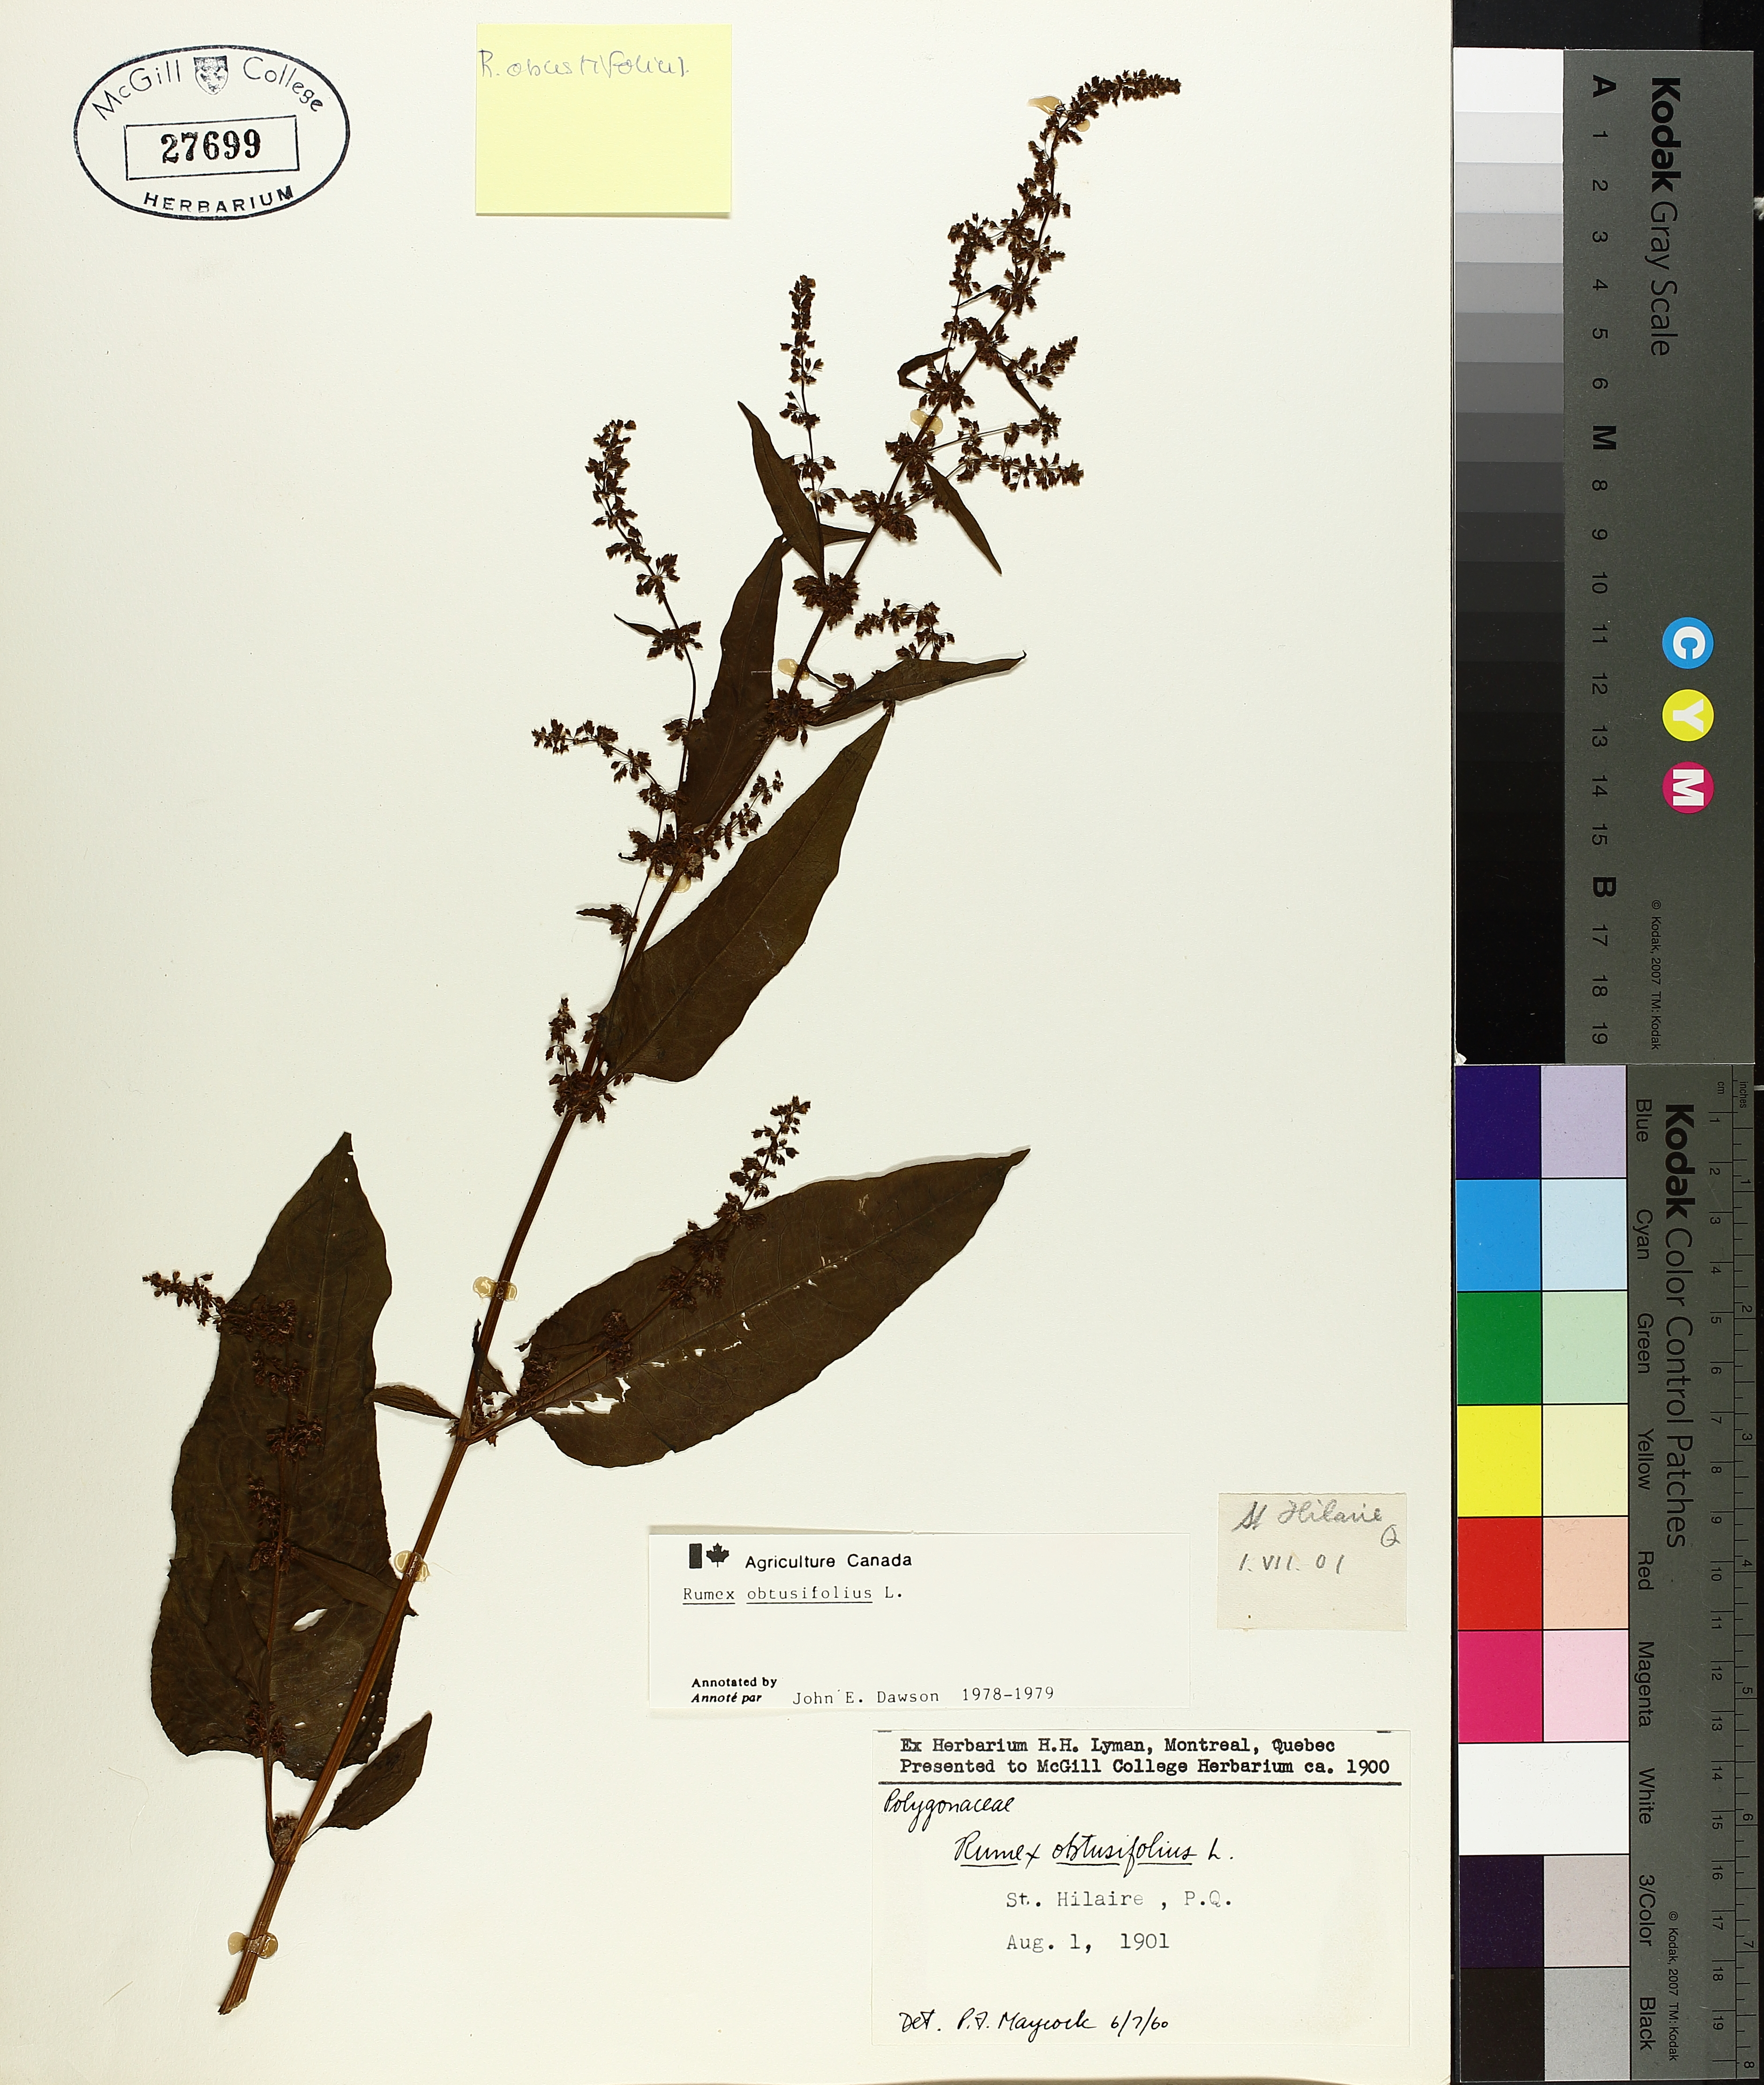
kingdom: Plantae
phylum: Tracheophyta
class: Magnoliopsida
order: Caryophyllales
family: Polygonaceae
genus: Rumex
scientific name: Rumex obtusifolius
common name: Bitter dock
